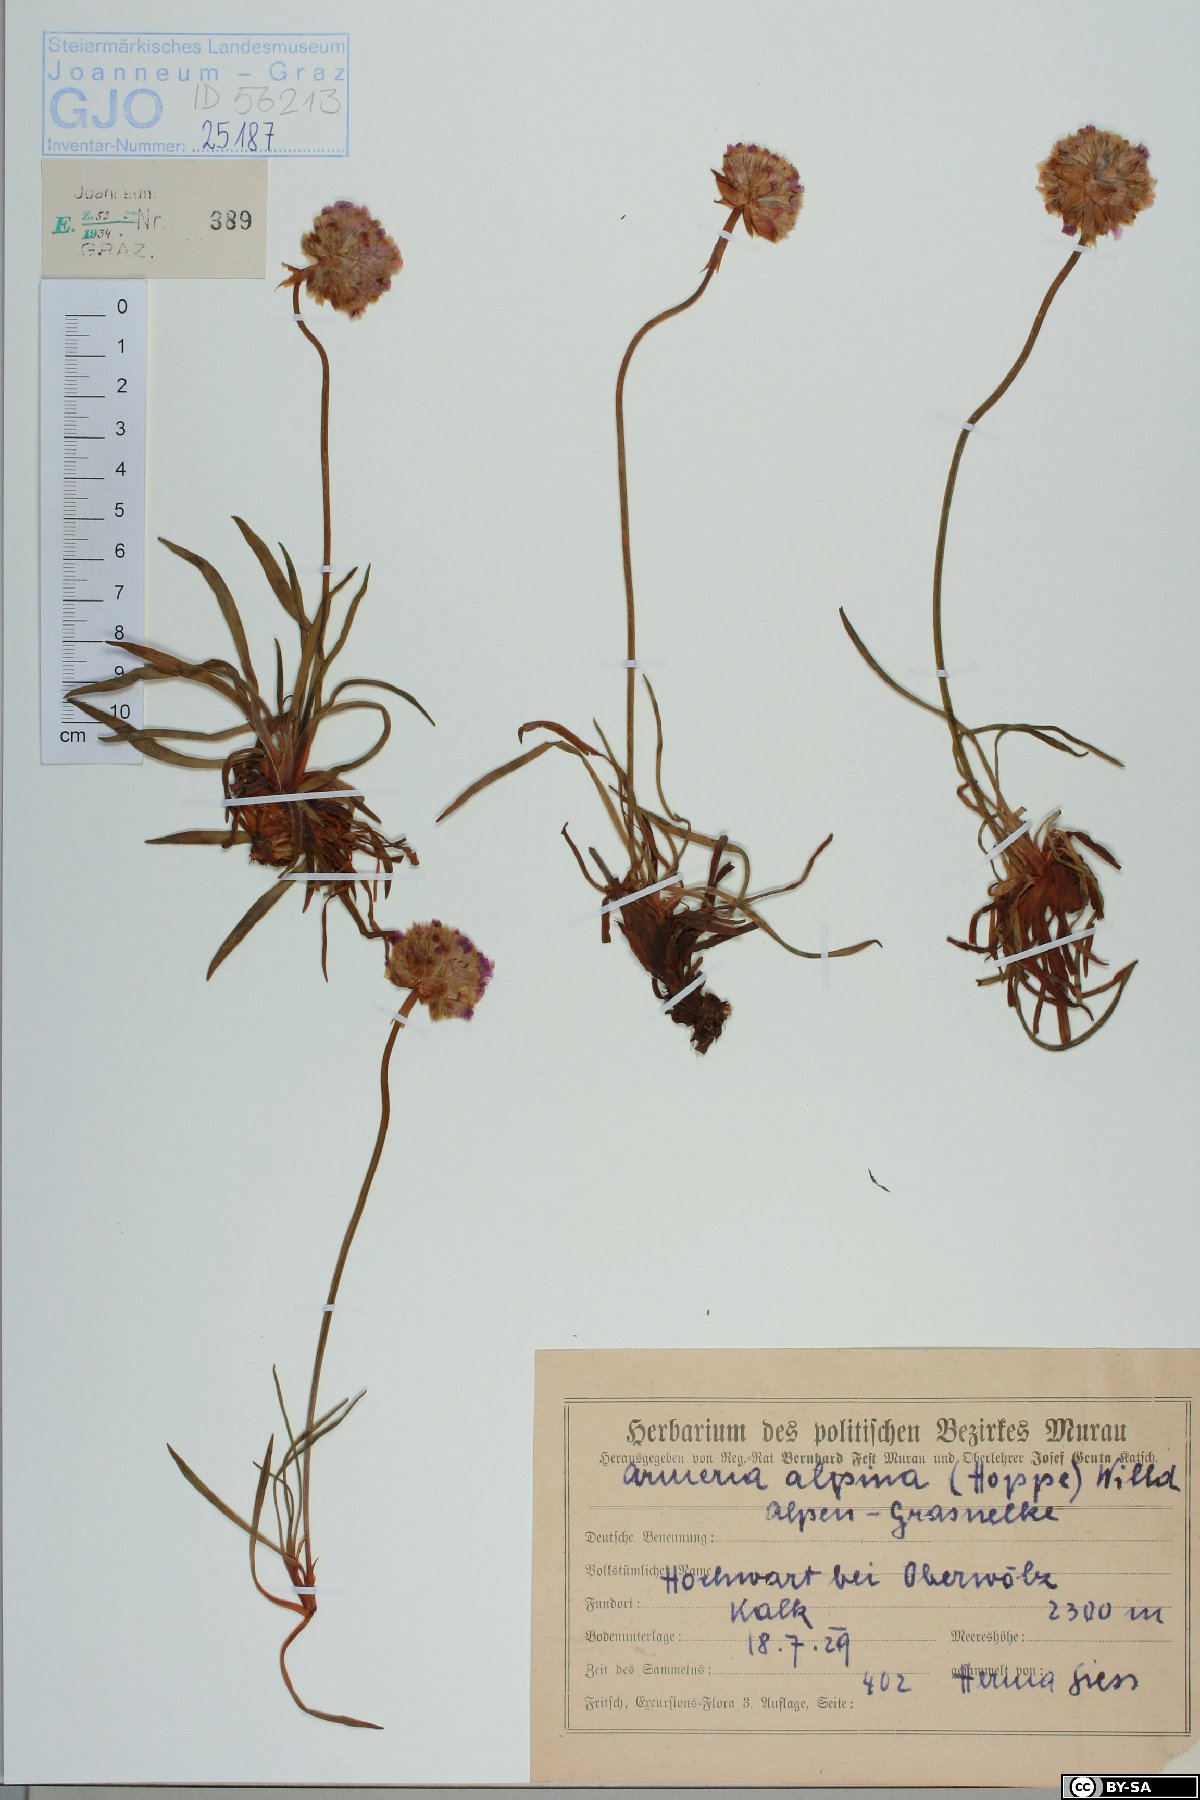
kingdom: Plantae
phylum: Tracheophyta
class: Magnoliopsida
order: Caryophyllales
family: Plumbaginaceae
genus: Armeria
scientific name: Armeria alpina
